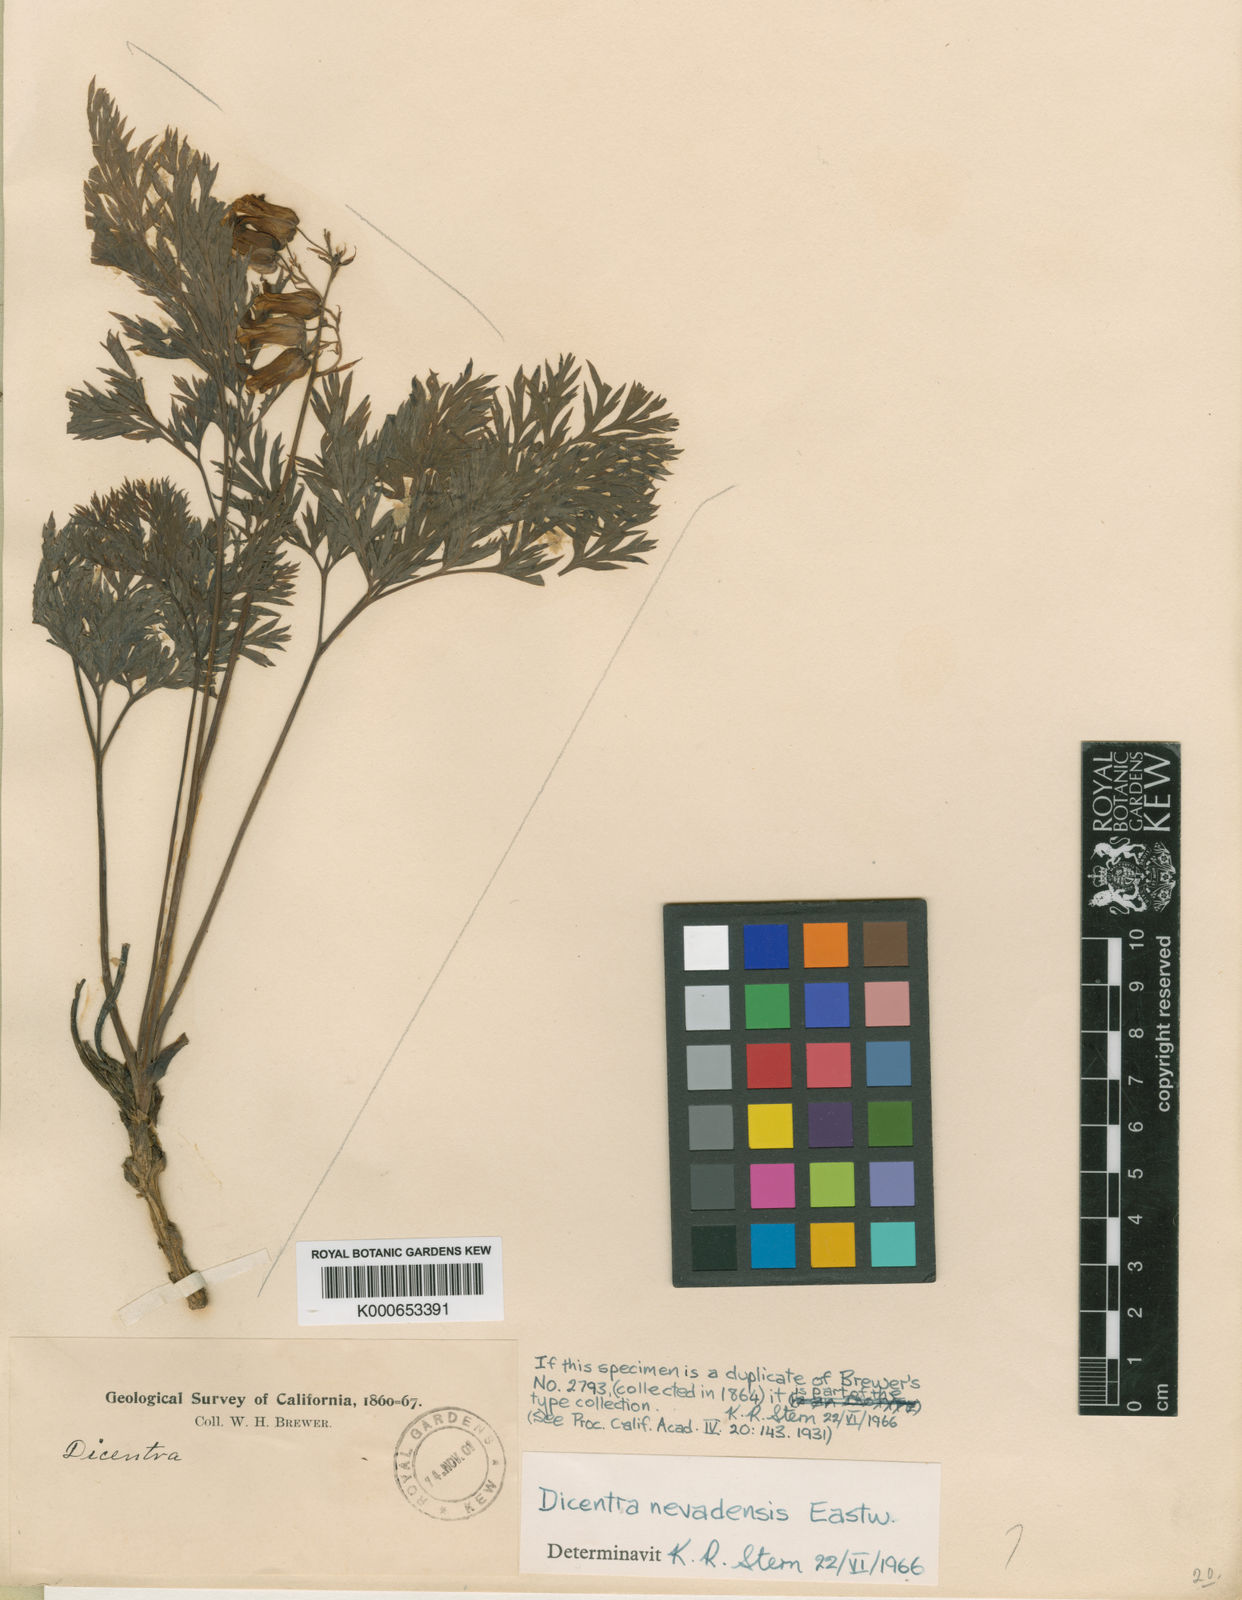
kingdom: Plantae
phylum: Tracheophyta
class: Magnoliopsida
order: Ranunculales
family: Papaveraceae
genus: Dicentra
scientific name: Dicentra nevadensis
